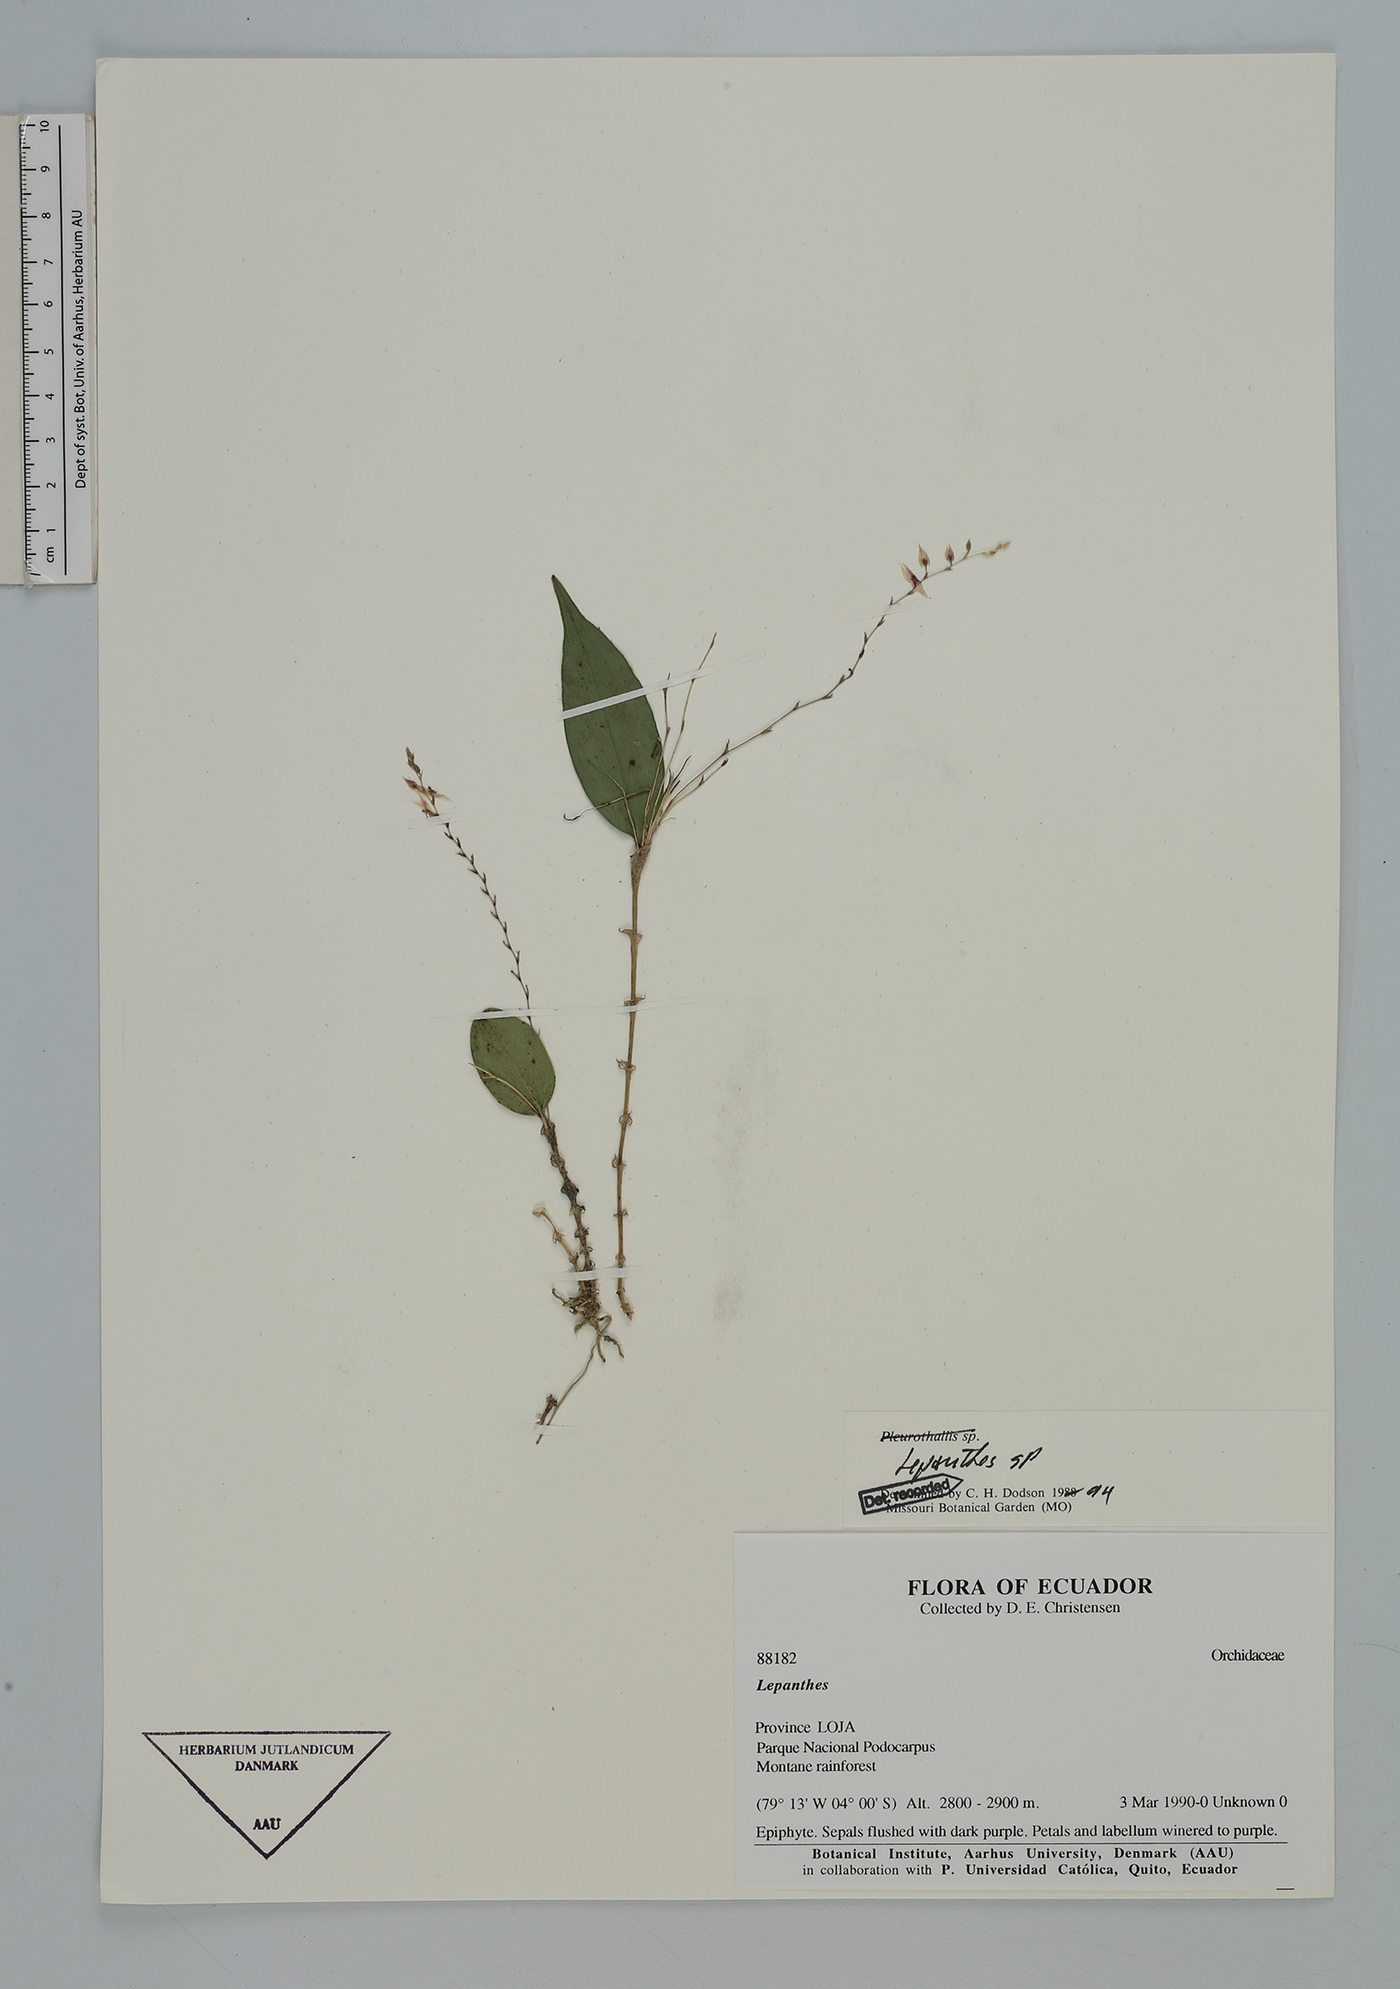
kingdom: Plantae
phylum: Tracheophyta
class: Liliopsida
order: Asparagales
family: Orchidaceae
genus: Lepanthes
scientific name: Lepanthes
